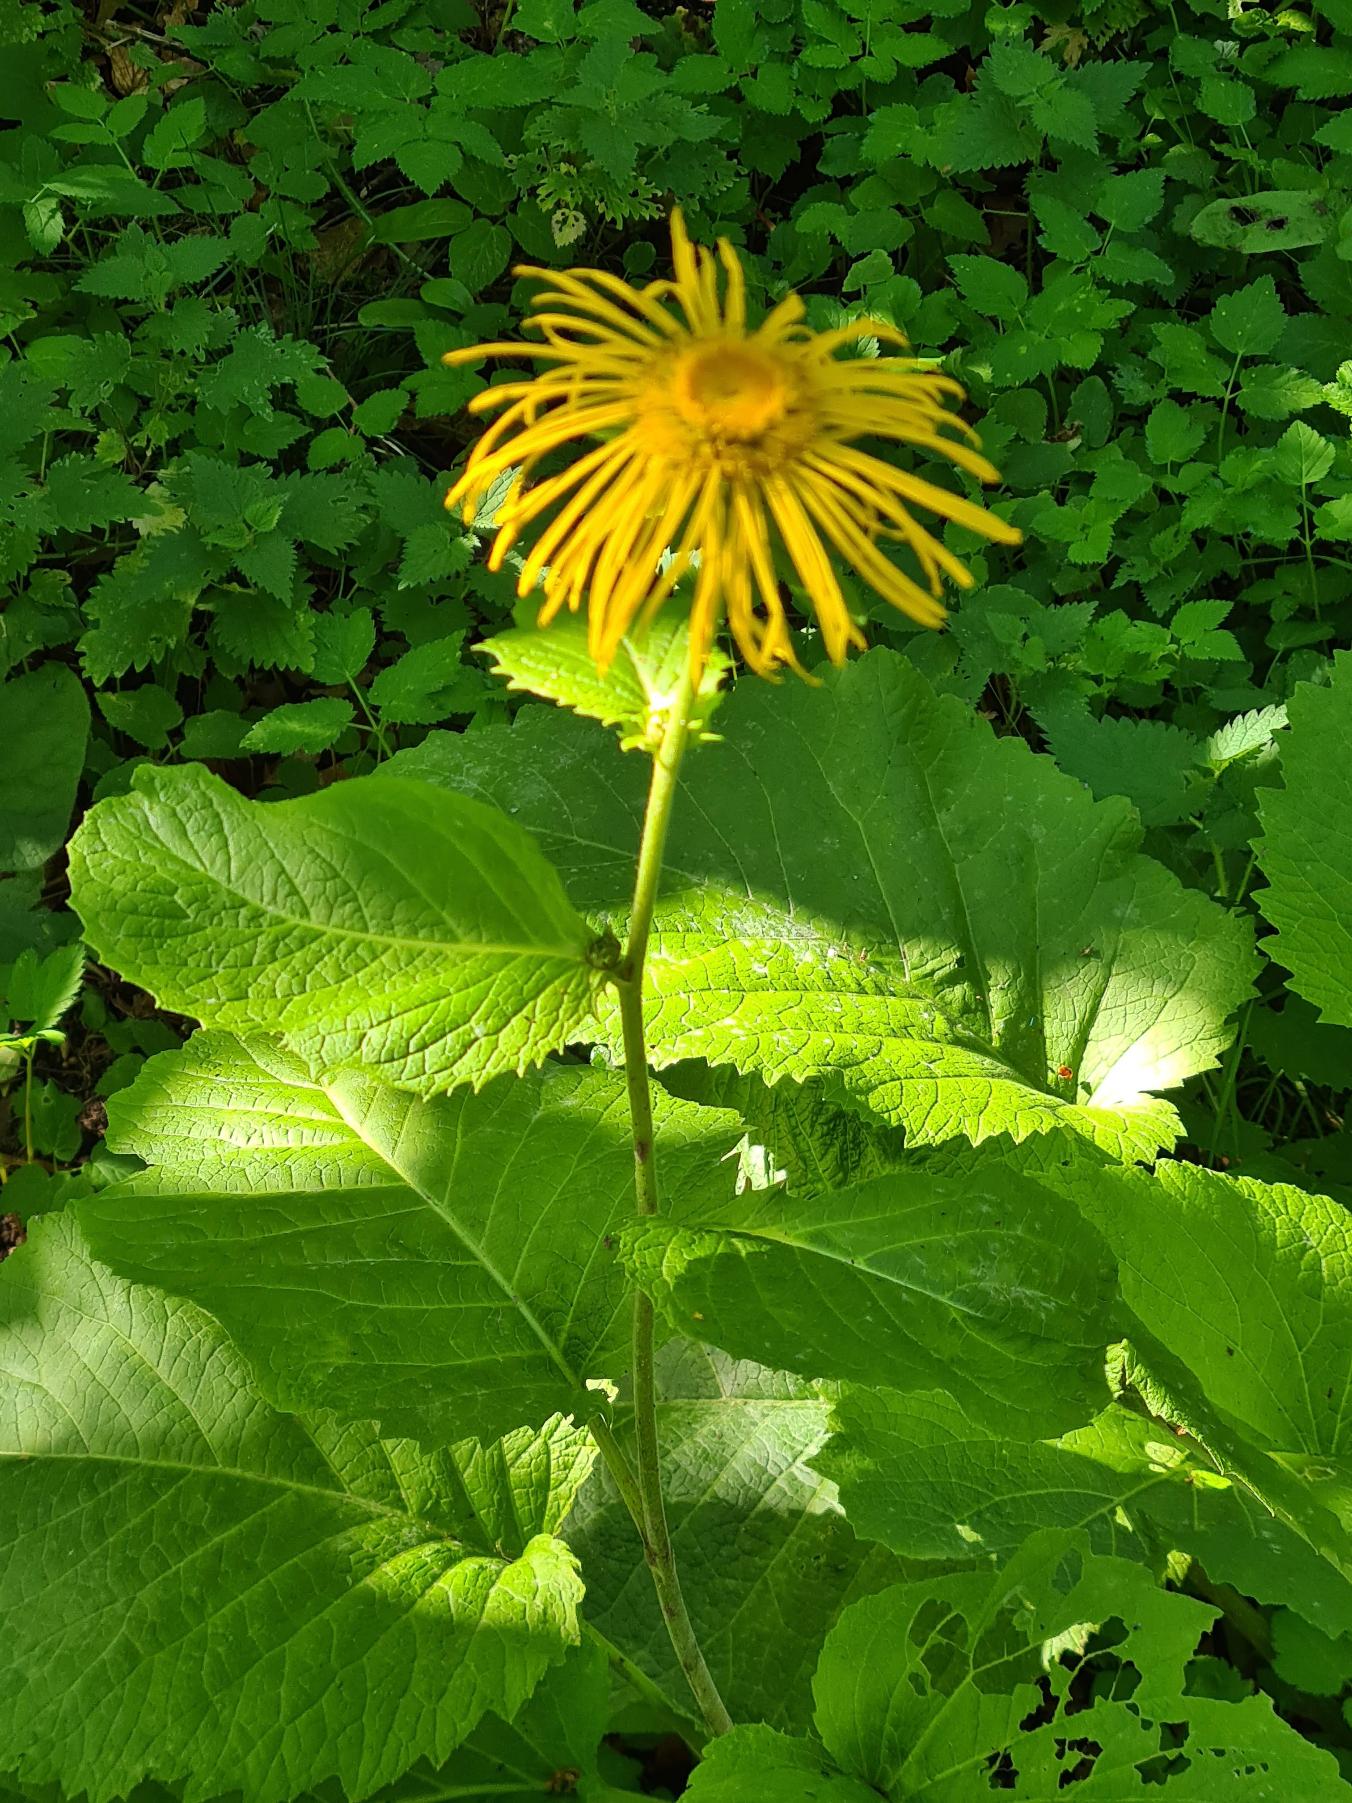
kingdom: Plantae
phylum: Tracheophyta
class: Magnoliopsida
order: Asterales
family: Asteraceae
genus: Telekia
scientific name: Telekia speciosa
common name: Tusindstråle
